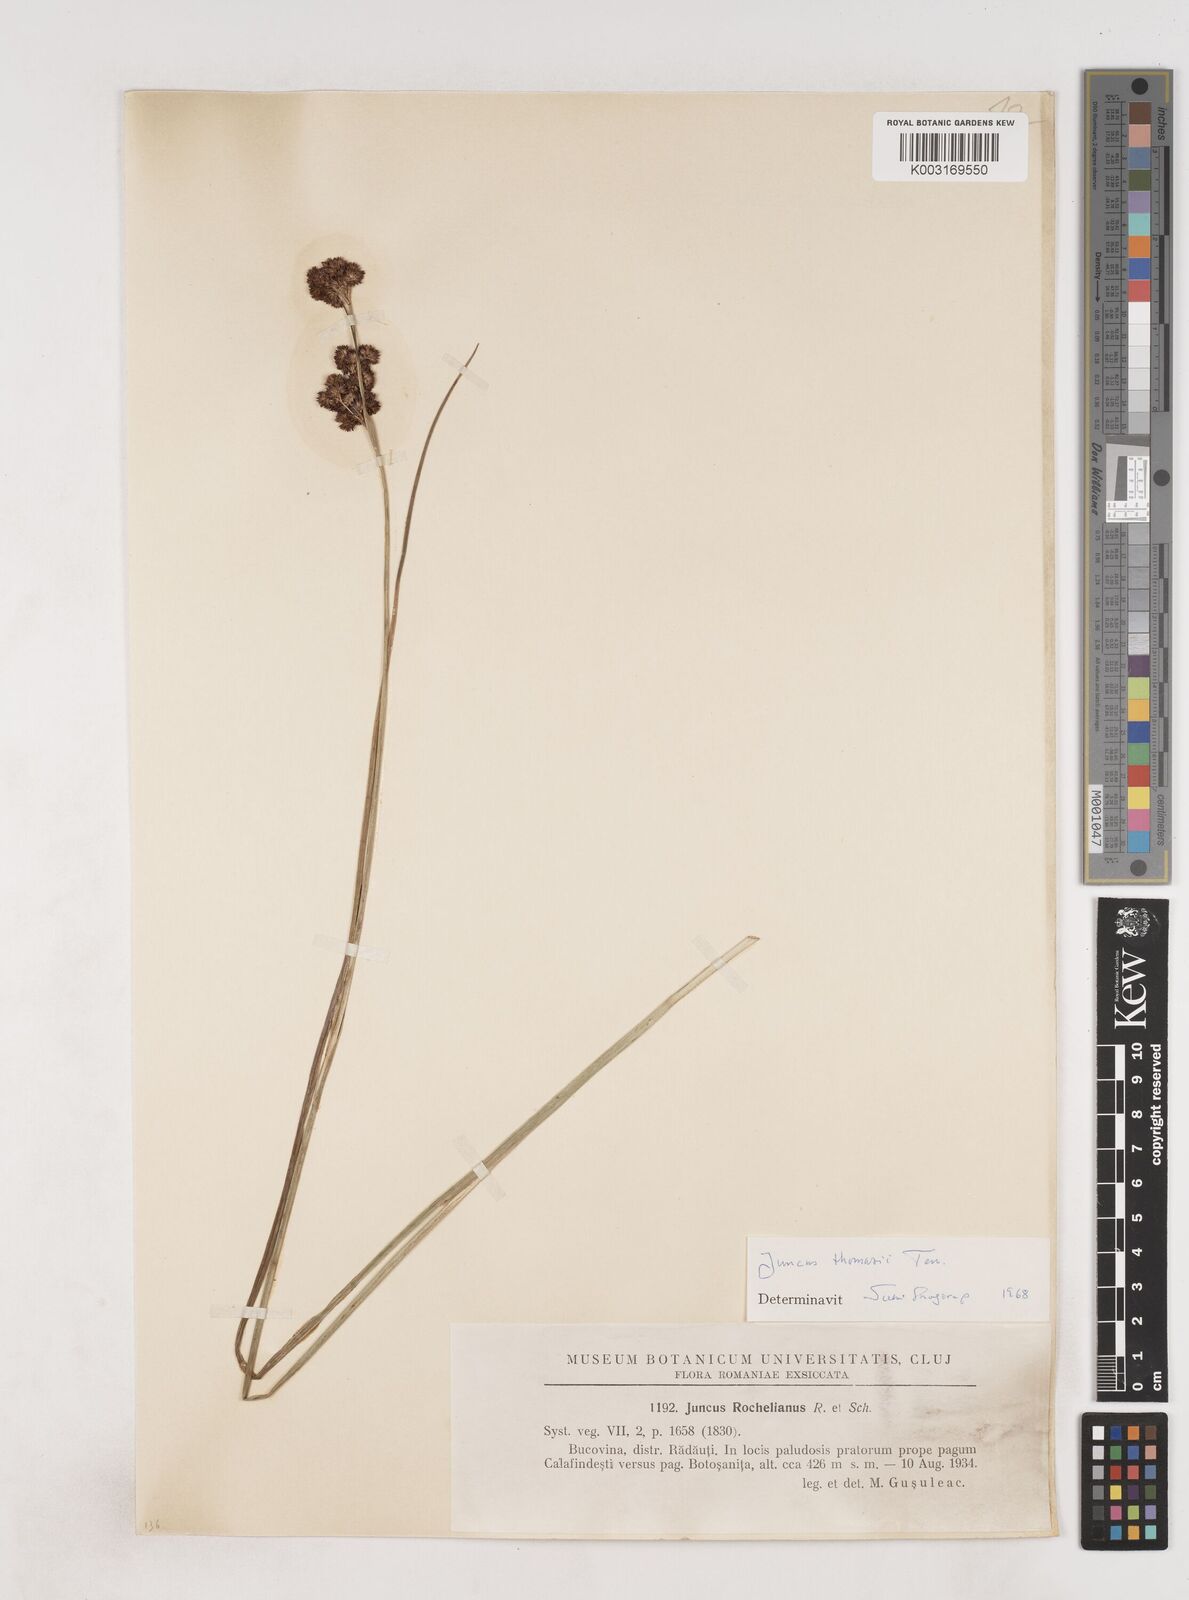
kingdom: Plantae
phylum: Tracheophyta
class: Liliopsida
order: Poales
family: Juncaceae
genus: Juncus
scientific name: Juncus thomasii
